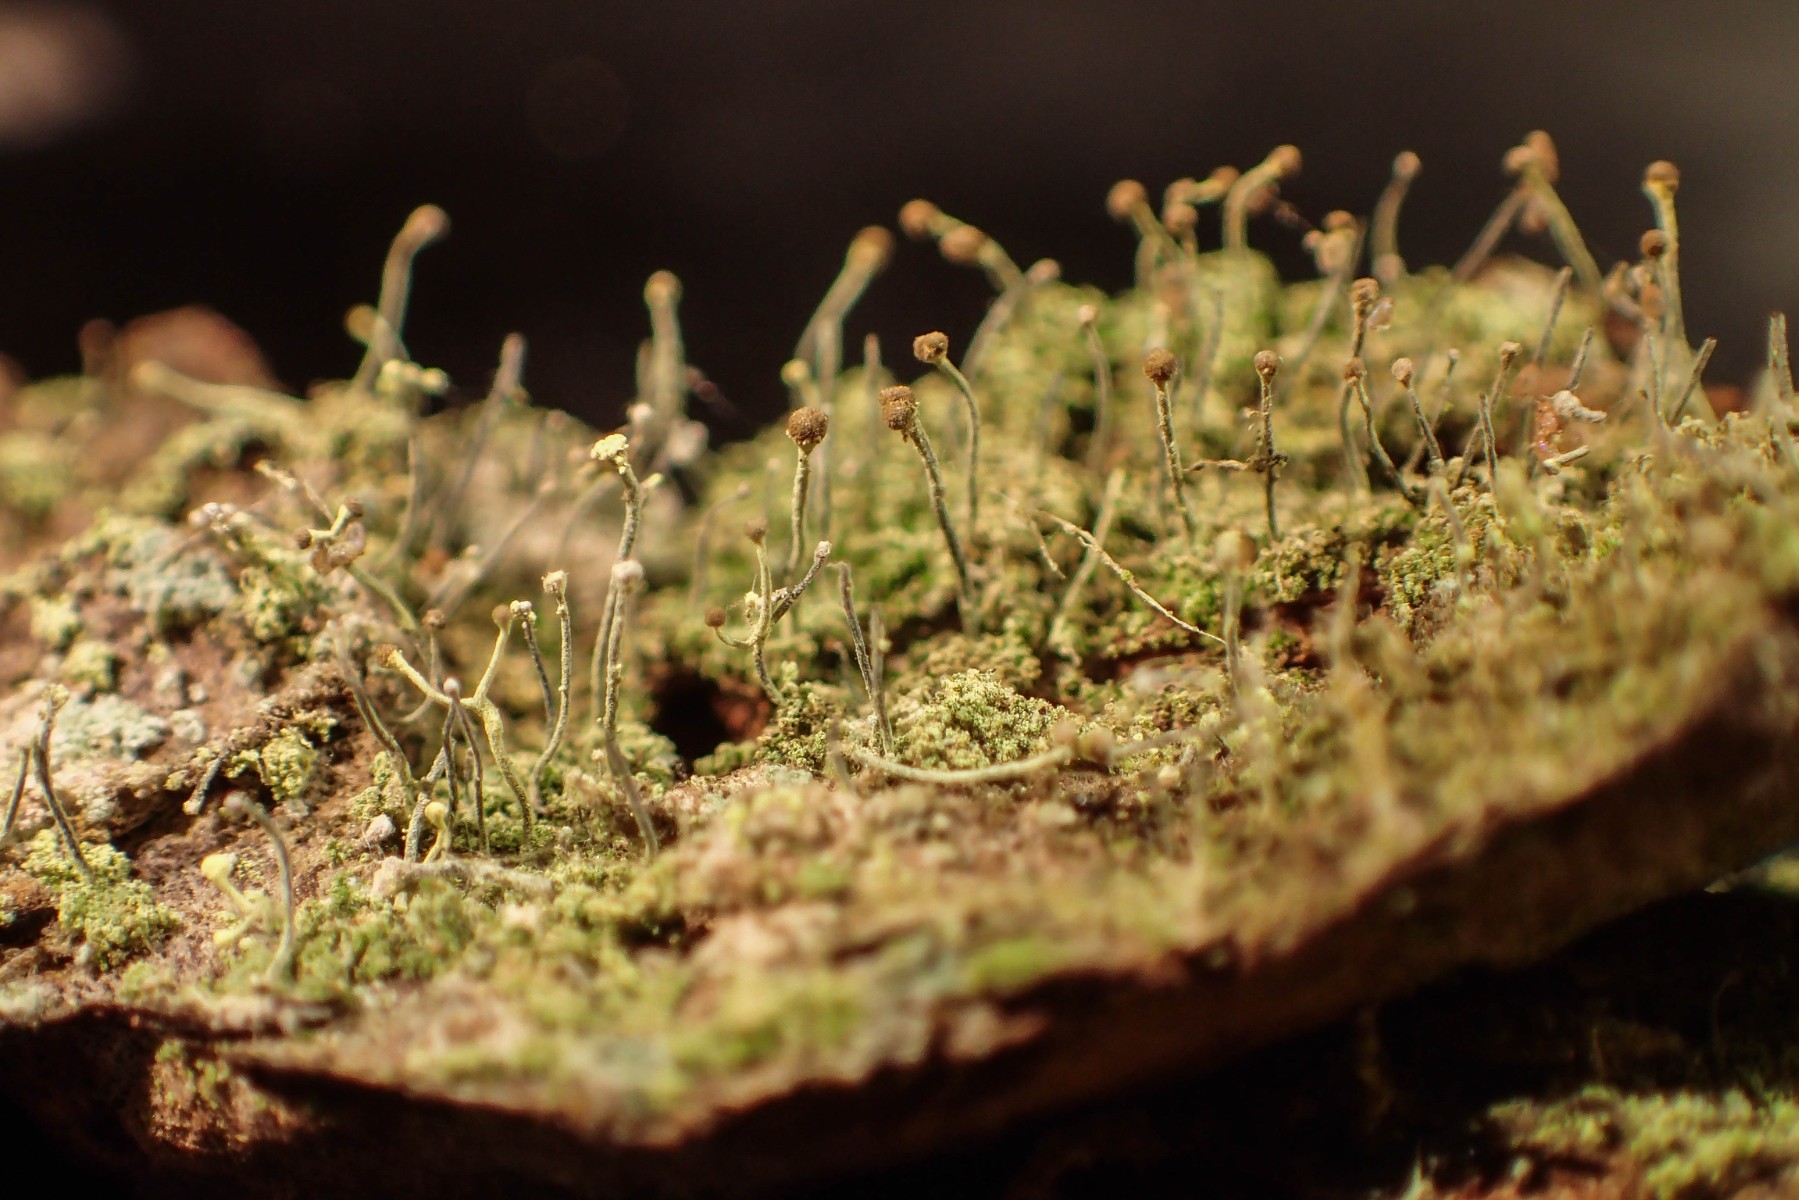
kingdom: Fungi
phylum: Ascomycota
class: Coniocybomycetes
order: Coniocybales
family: Coniocybaceae
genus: Chaenotheca
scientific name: Chaenotheca furfuracea
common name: tørve-knappenålslav
